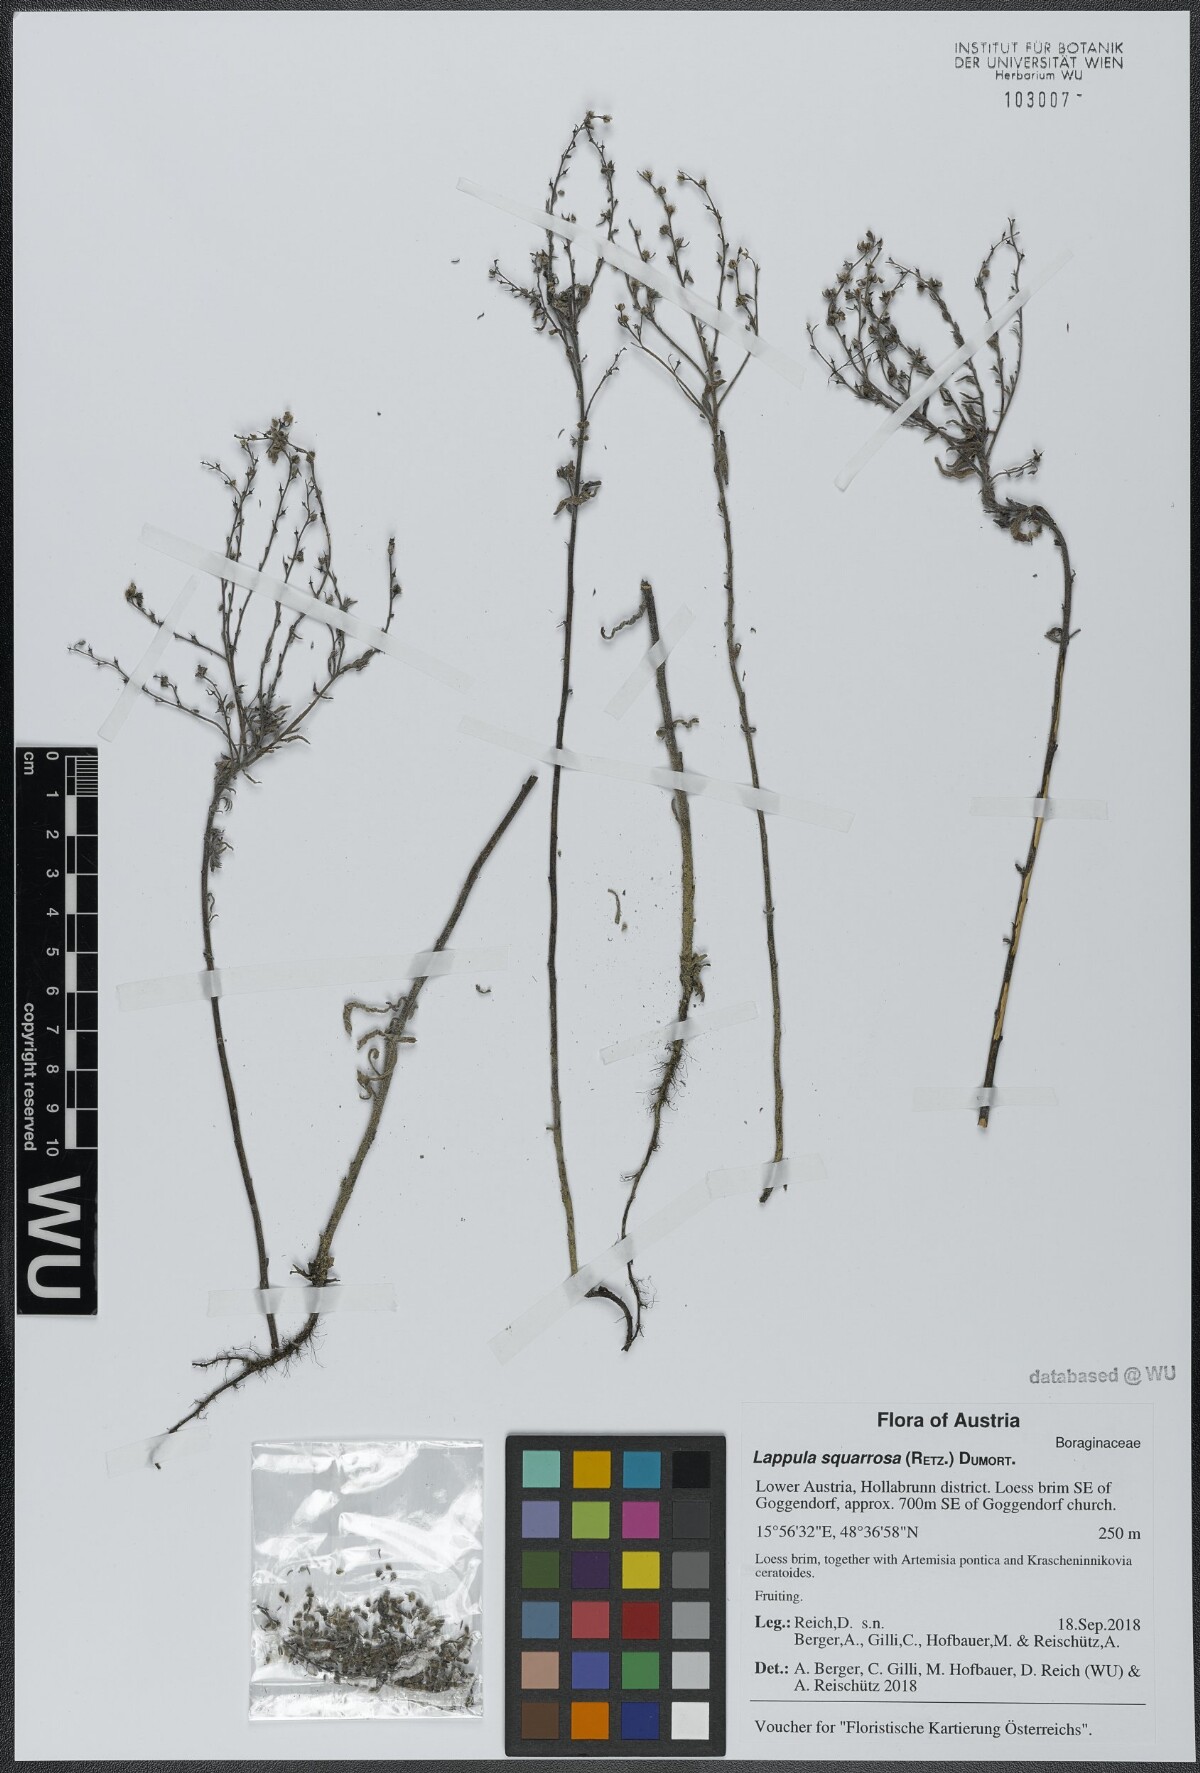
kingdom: Plantae
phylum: Tracheophyta
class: Magnoliopsida
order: Boraginales
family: Boraginaceae
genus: Lappula
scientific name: Lappula squarrosa
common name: European stickseed
